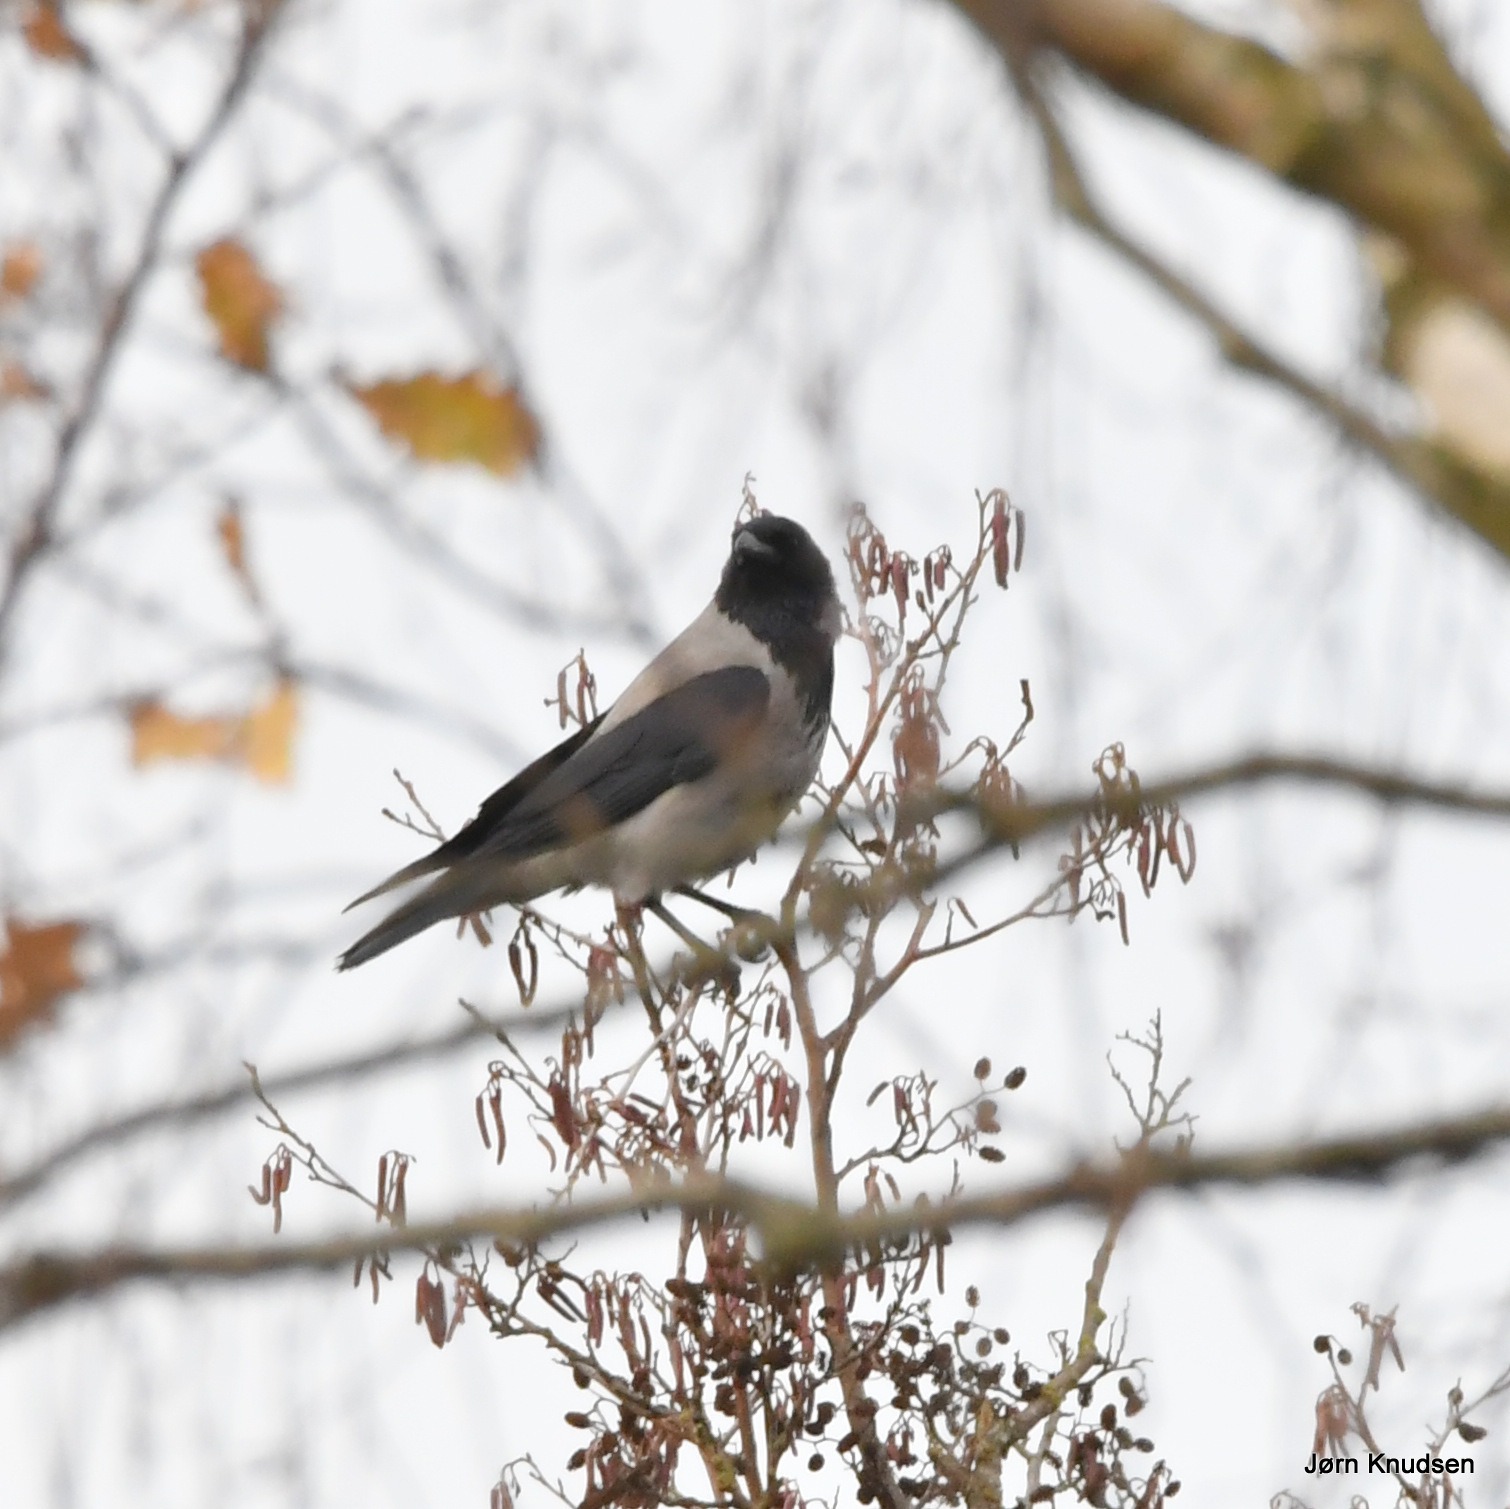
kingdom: Animalia
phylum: Chordata
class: Aves
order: Passeriformes
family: Corvidae
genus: Corvus
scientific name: Corvus cornix
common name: Gråkrage
